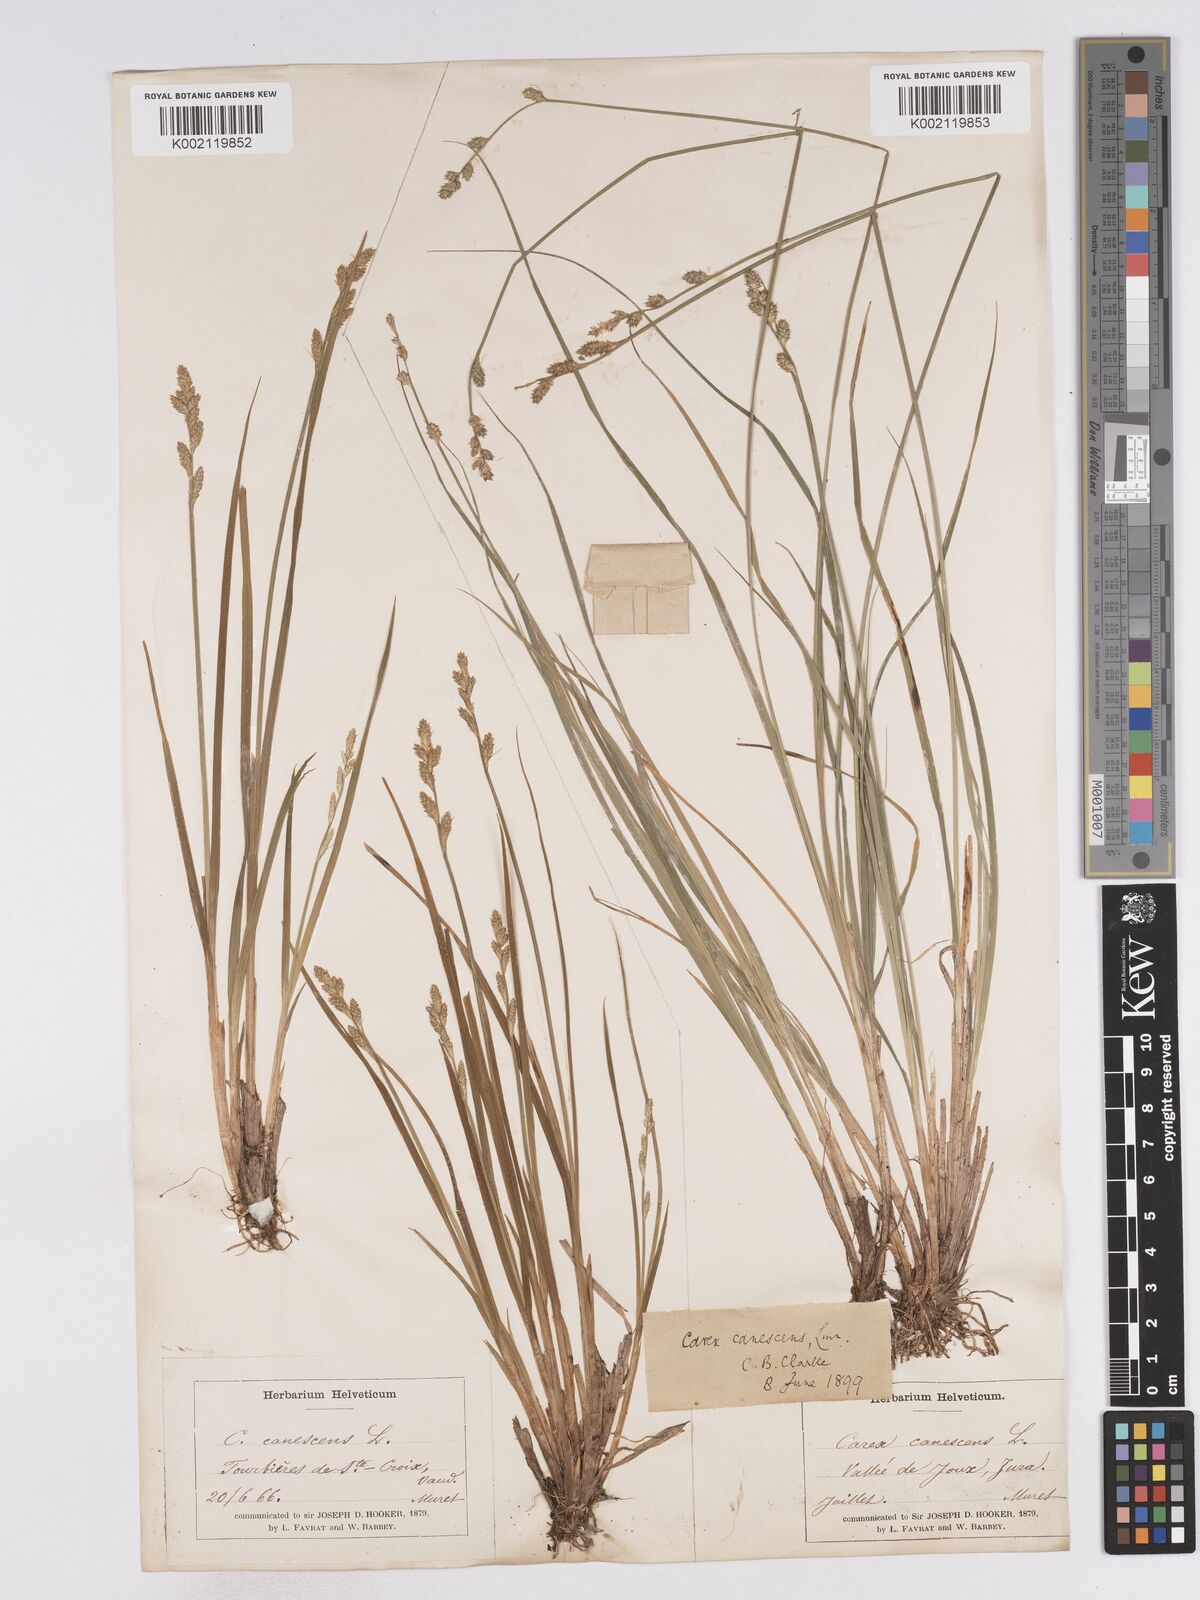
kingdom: Plantae
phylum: Tracheophyta
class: Liliopsida
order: Poales
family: Cyperaceae
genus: Carex
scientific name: Carex curta
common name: White sedge
